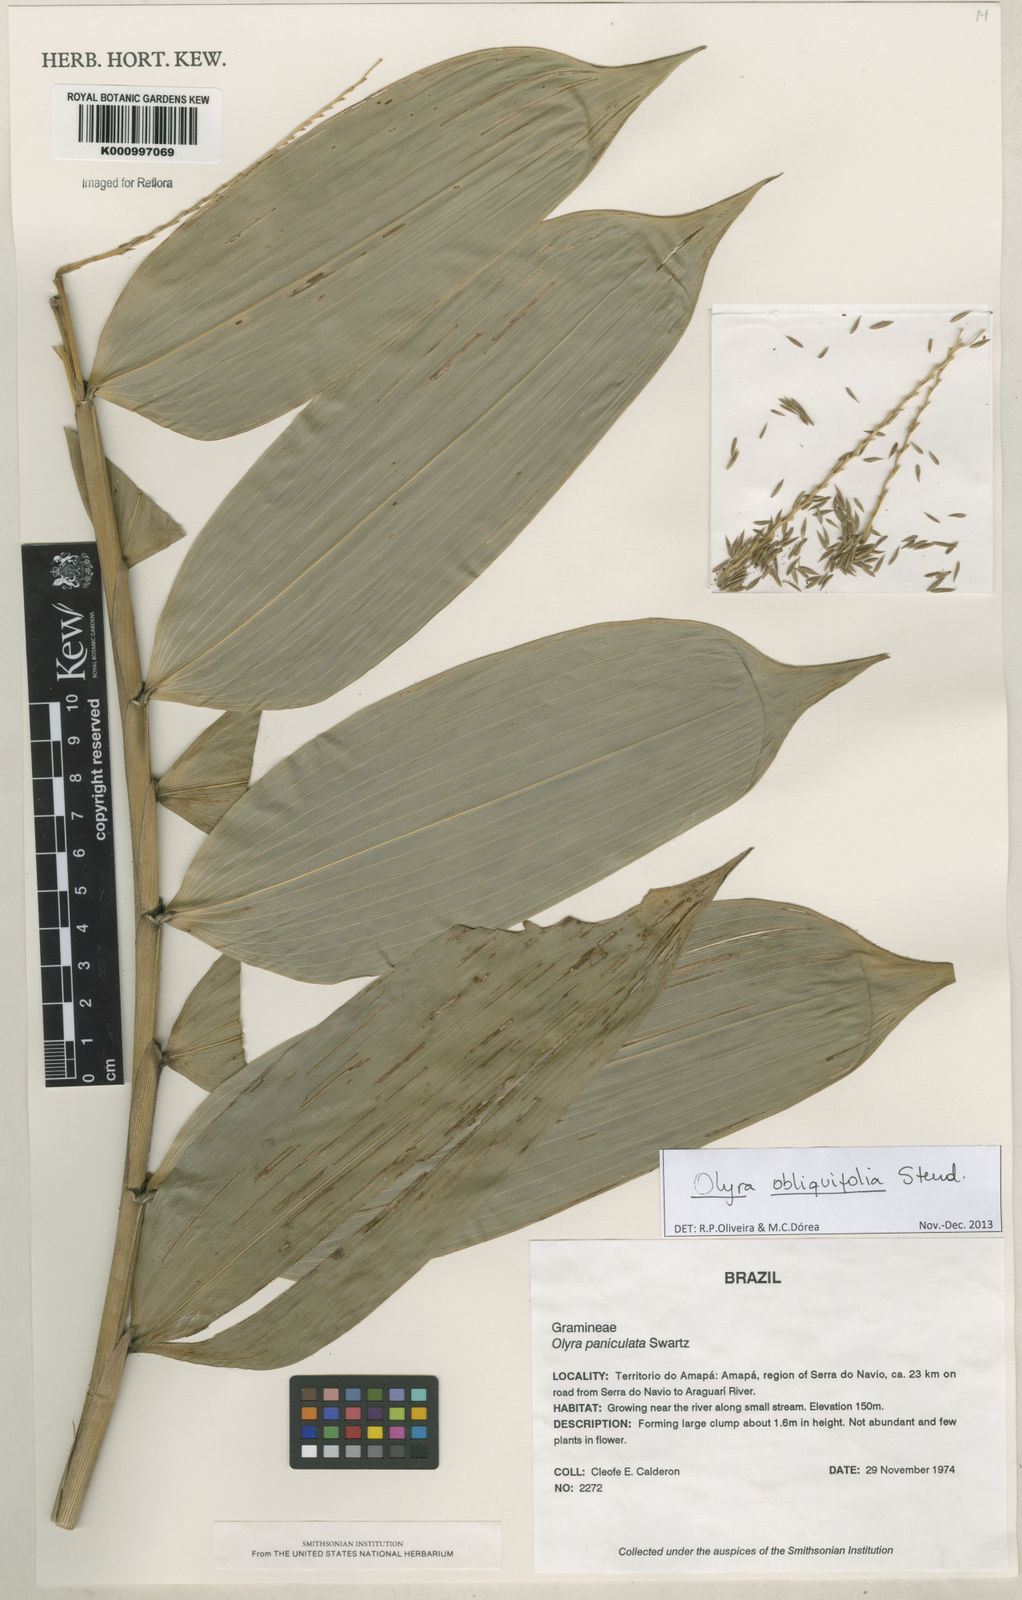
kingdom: Plantae
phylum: Tracheophyta
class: Liliopsida
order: Poales
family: Poaceae
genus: Olyra
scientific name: Olyra obliquifolia
